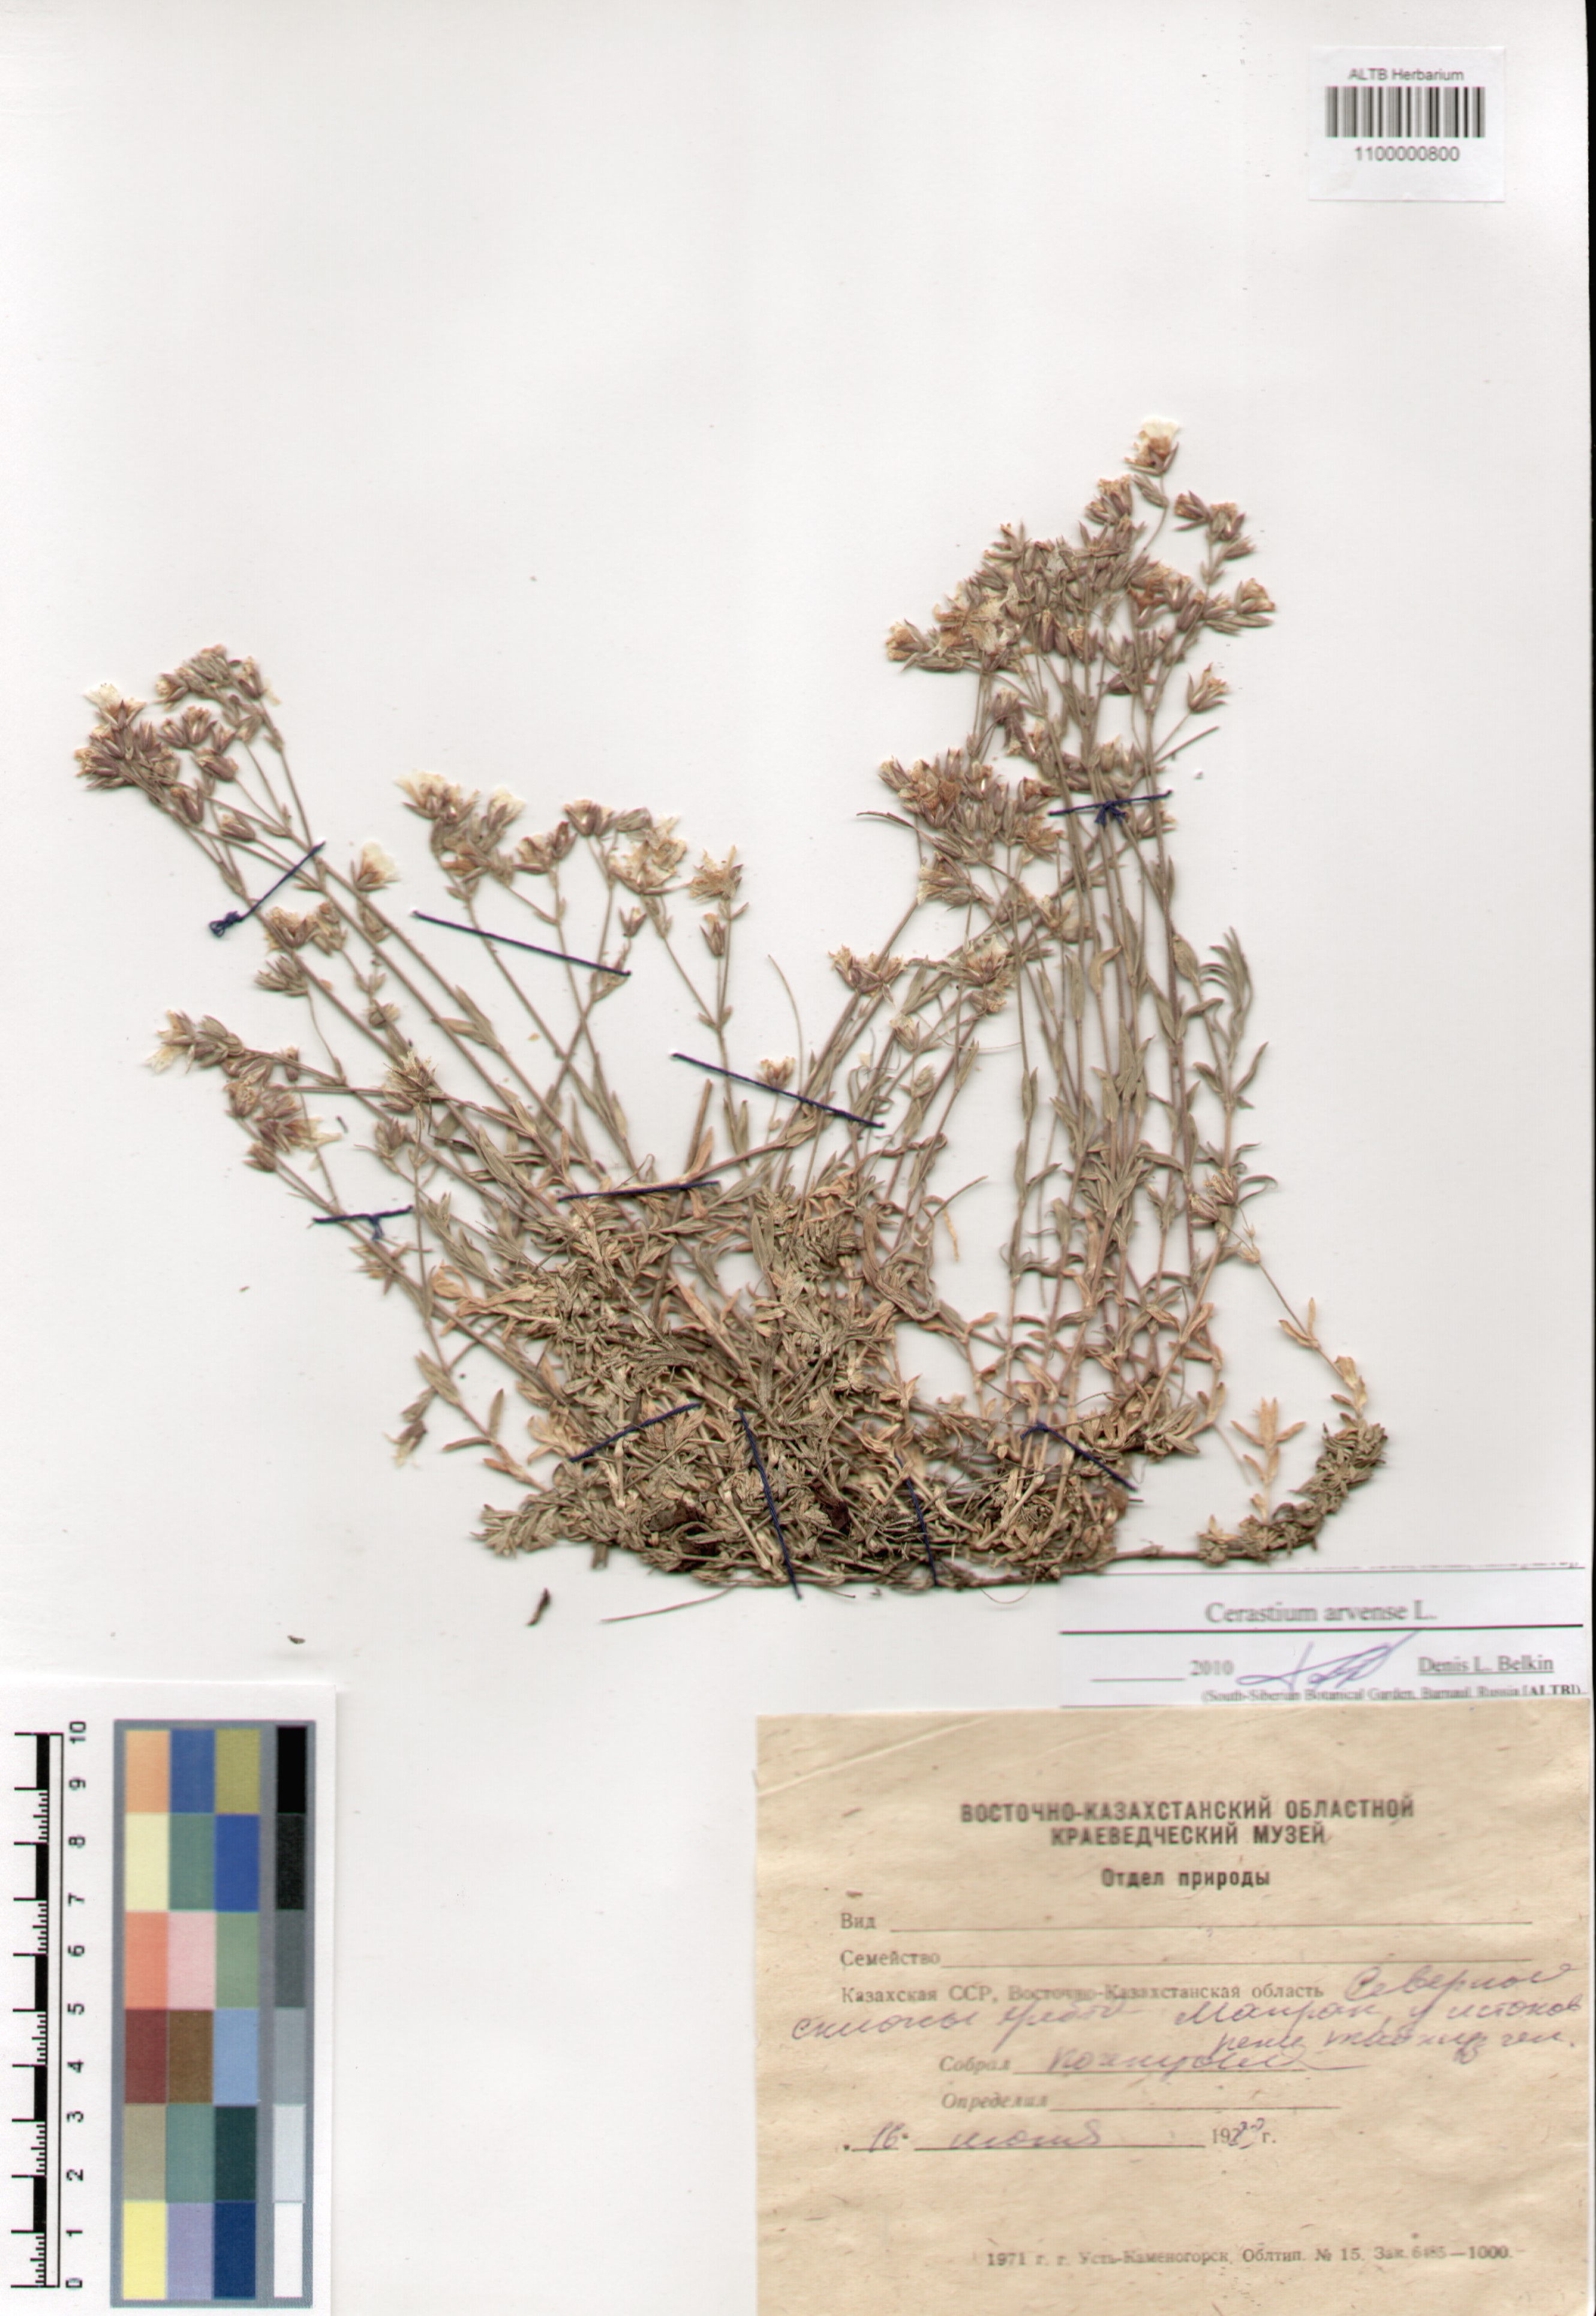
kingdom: Plantae
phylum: Tracheophyta
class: Magnoliopsida
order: Caryophyllales
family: Caryophyllaceae
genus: Cerastium
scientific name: Cerastium arvense
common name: Field mouse-ear
